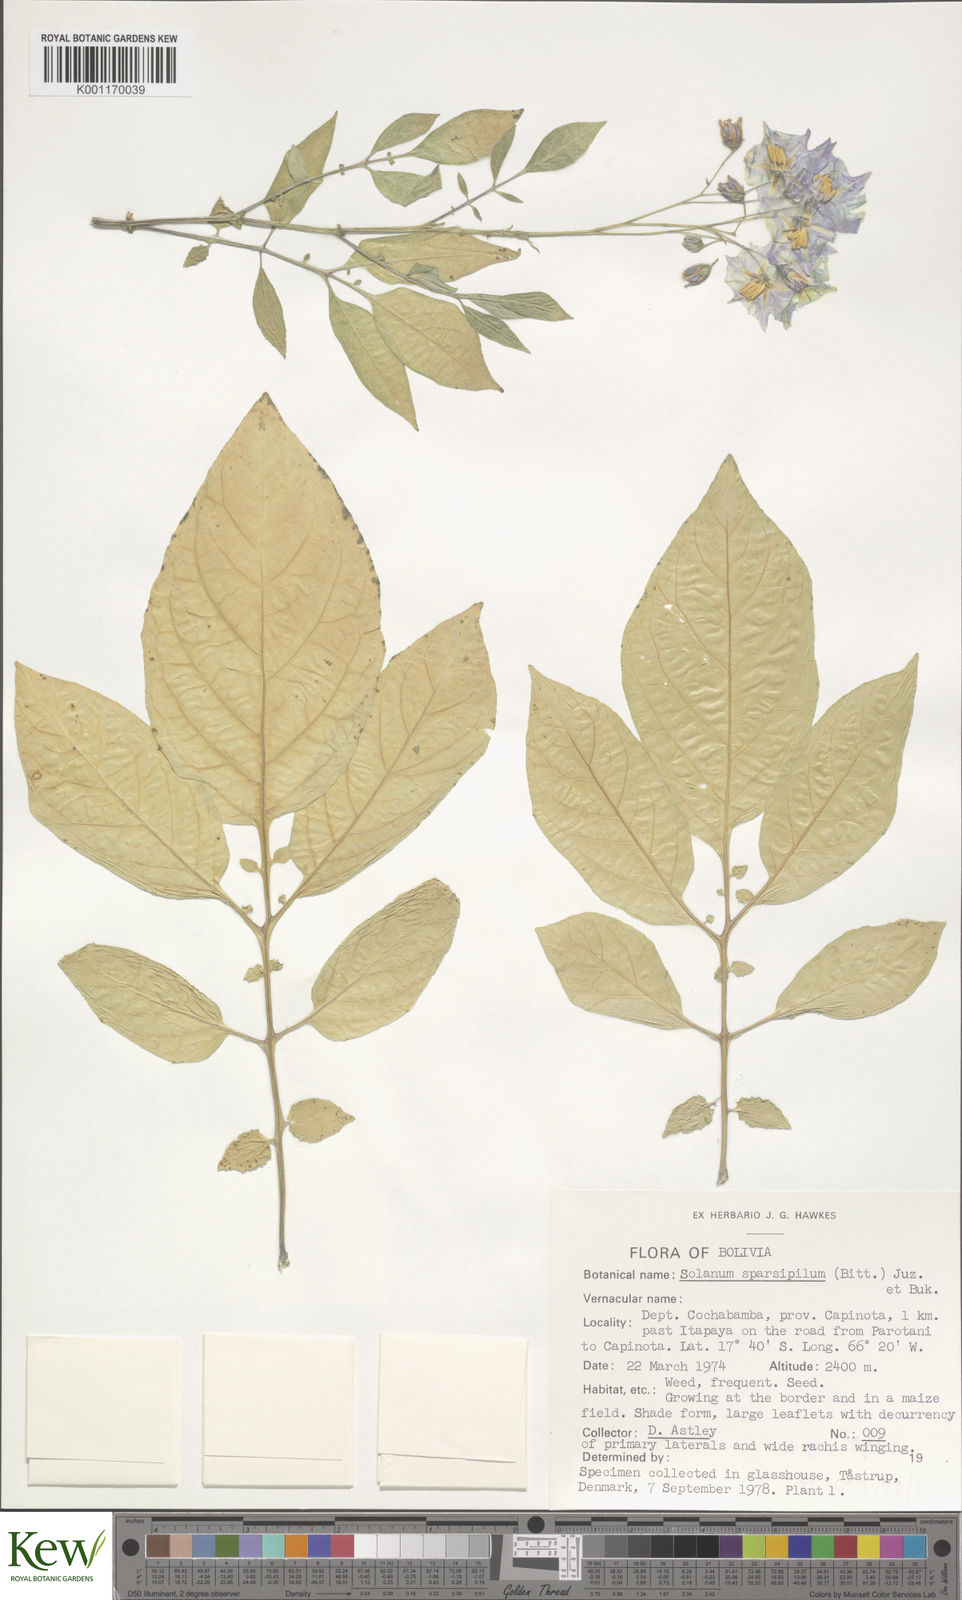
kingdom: Plantae
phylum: Tracheophyta
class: Magnoliopsida
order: Solanales
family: Solanaceae
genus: Solanum
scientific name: Solanum brevicaule
